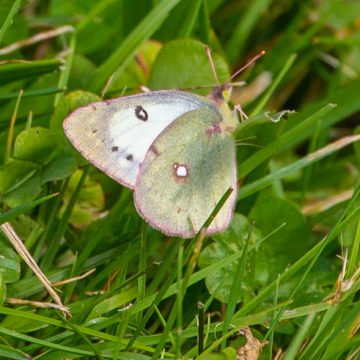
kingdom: Animalia
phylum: Arthropoda
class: Insecta
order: Lepidoptera
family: Pieridae
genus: Colias
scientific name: Colias philodice
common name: Clouded Sulphur
